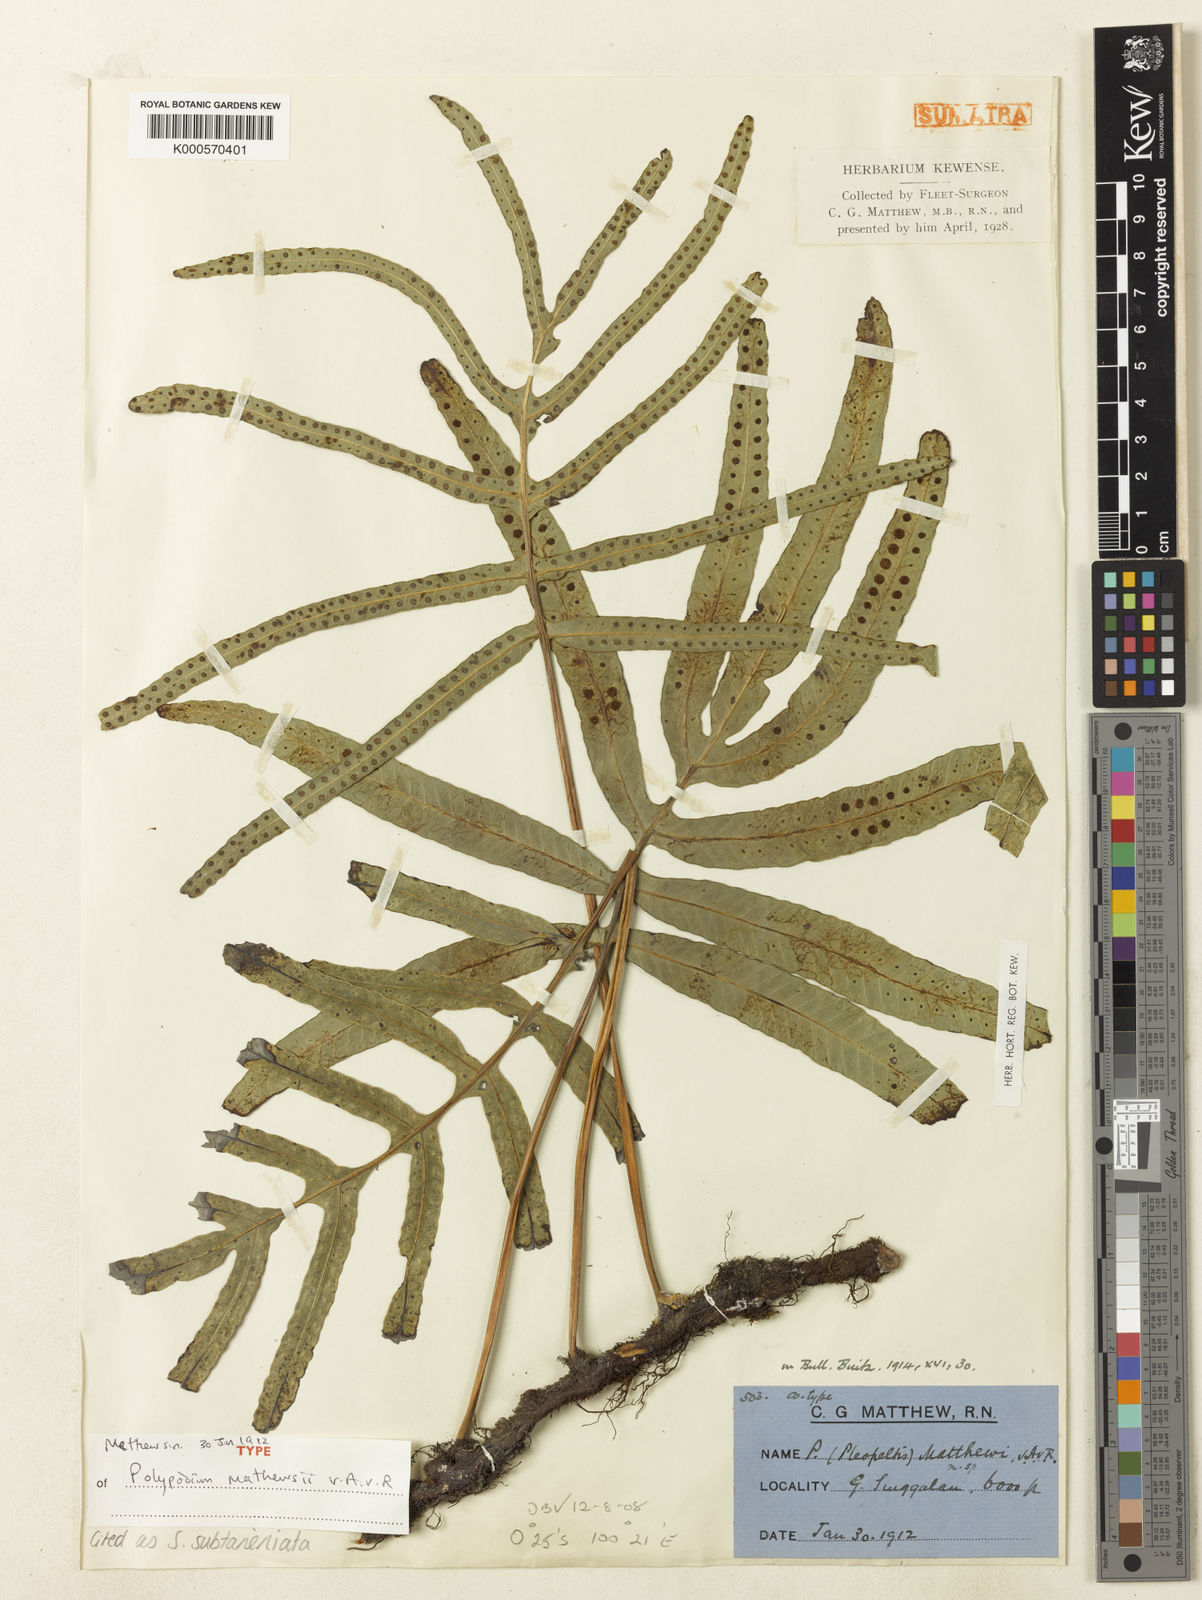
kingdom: Plantae
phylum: Tracheophyta
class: Polypodiopsida
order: Polypodiales
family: Polypodiaceae
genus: Selliguea
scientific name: Selliguea subtaeniata
